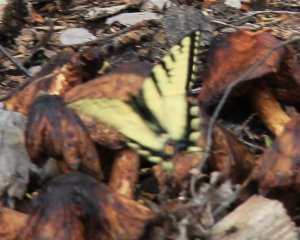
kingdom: Animalia
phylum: Arthropoda
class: Insecta
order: Lepidoptera
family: Papilionidae
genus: Pterourus
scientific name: Pterourus canadensis
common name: Canadian Tiger Swallowtail
